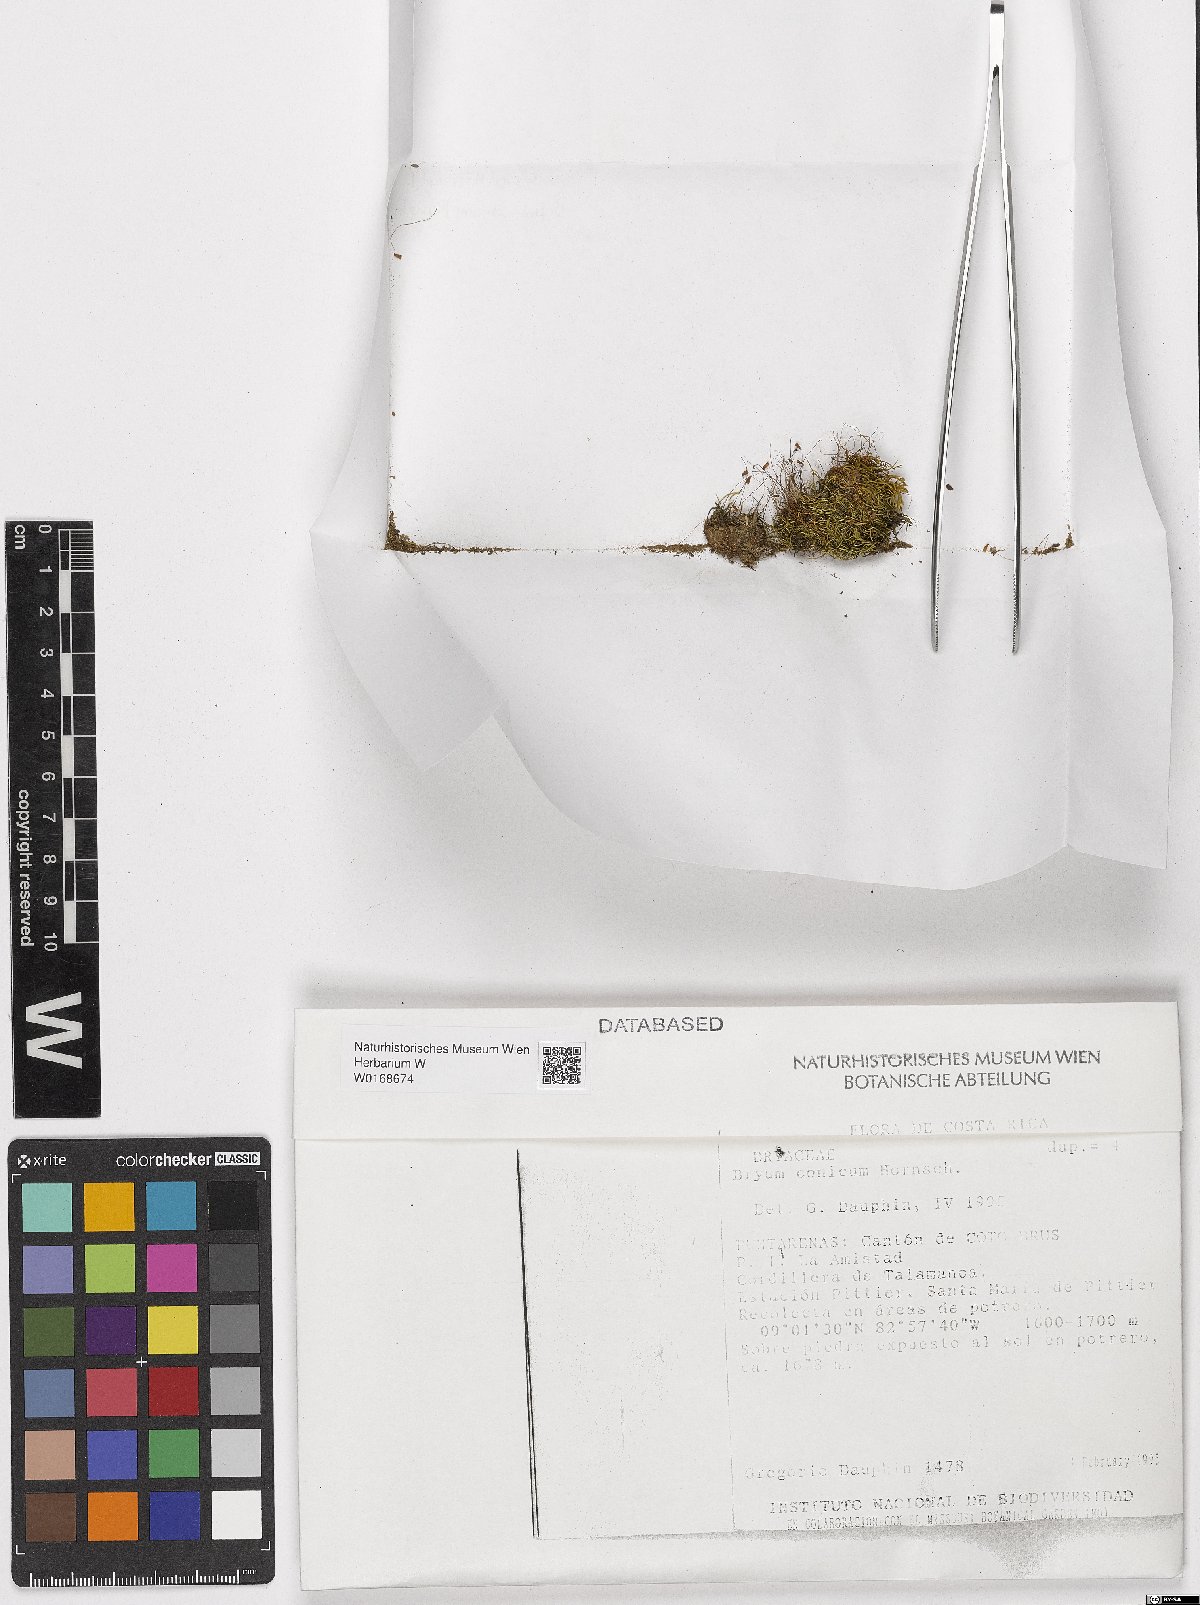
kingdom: Plantae
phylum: Bryophyta
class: Bryopsida
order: Bryales
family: Bryaceae
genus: Anomobryum
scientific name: Anomobryum conicum
